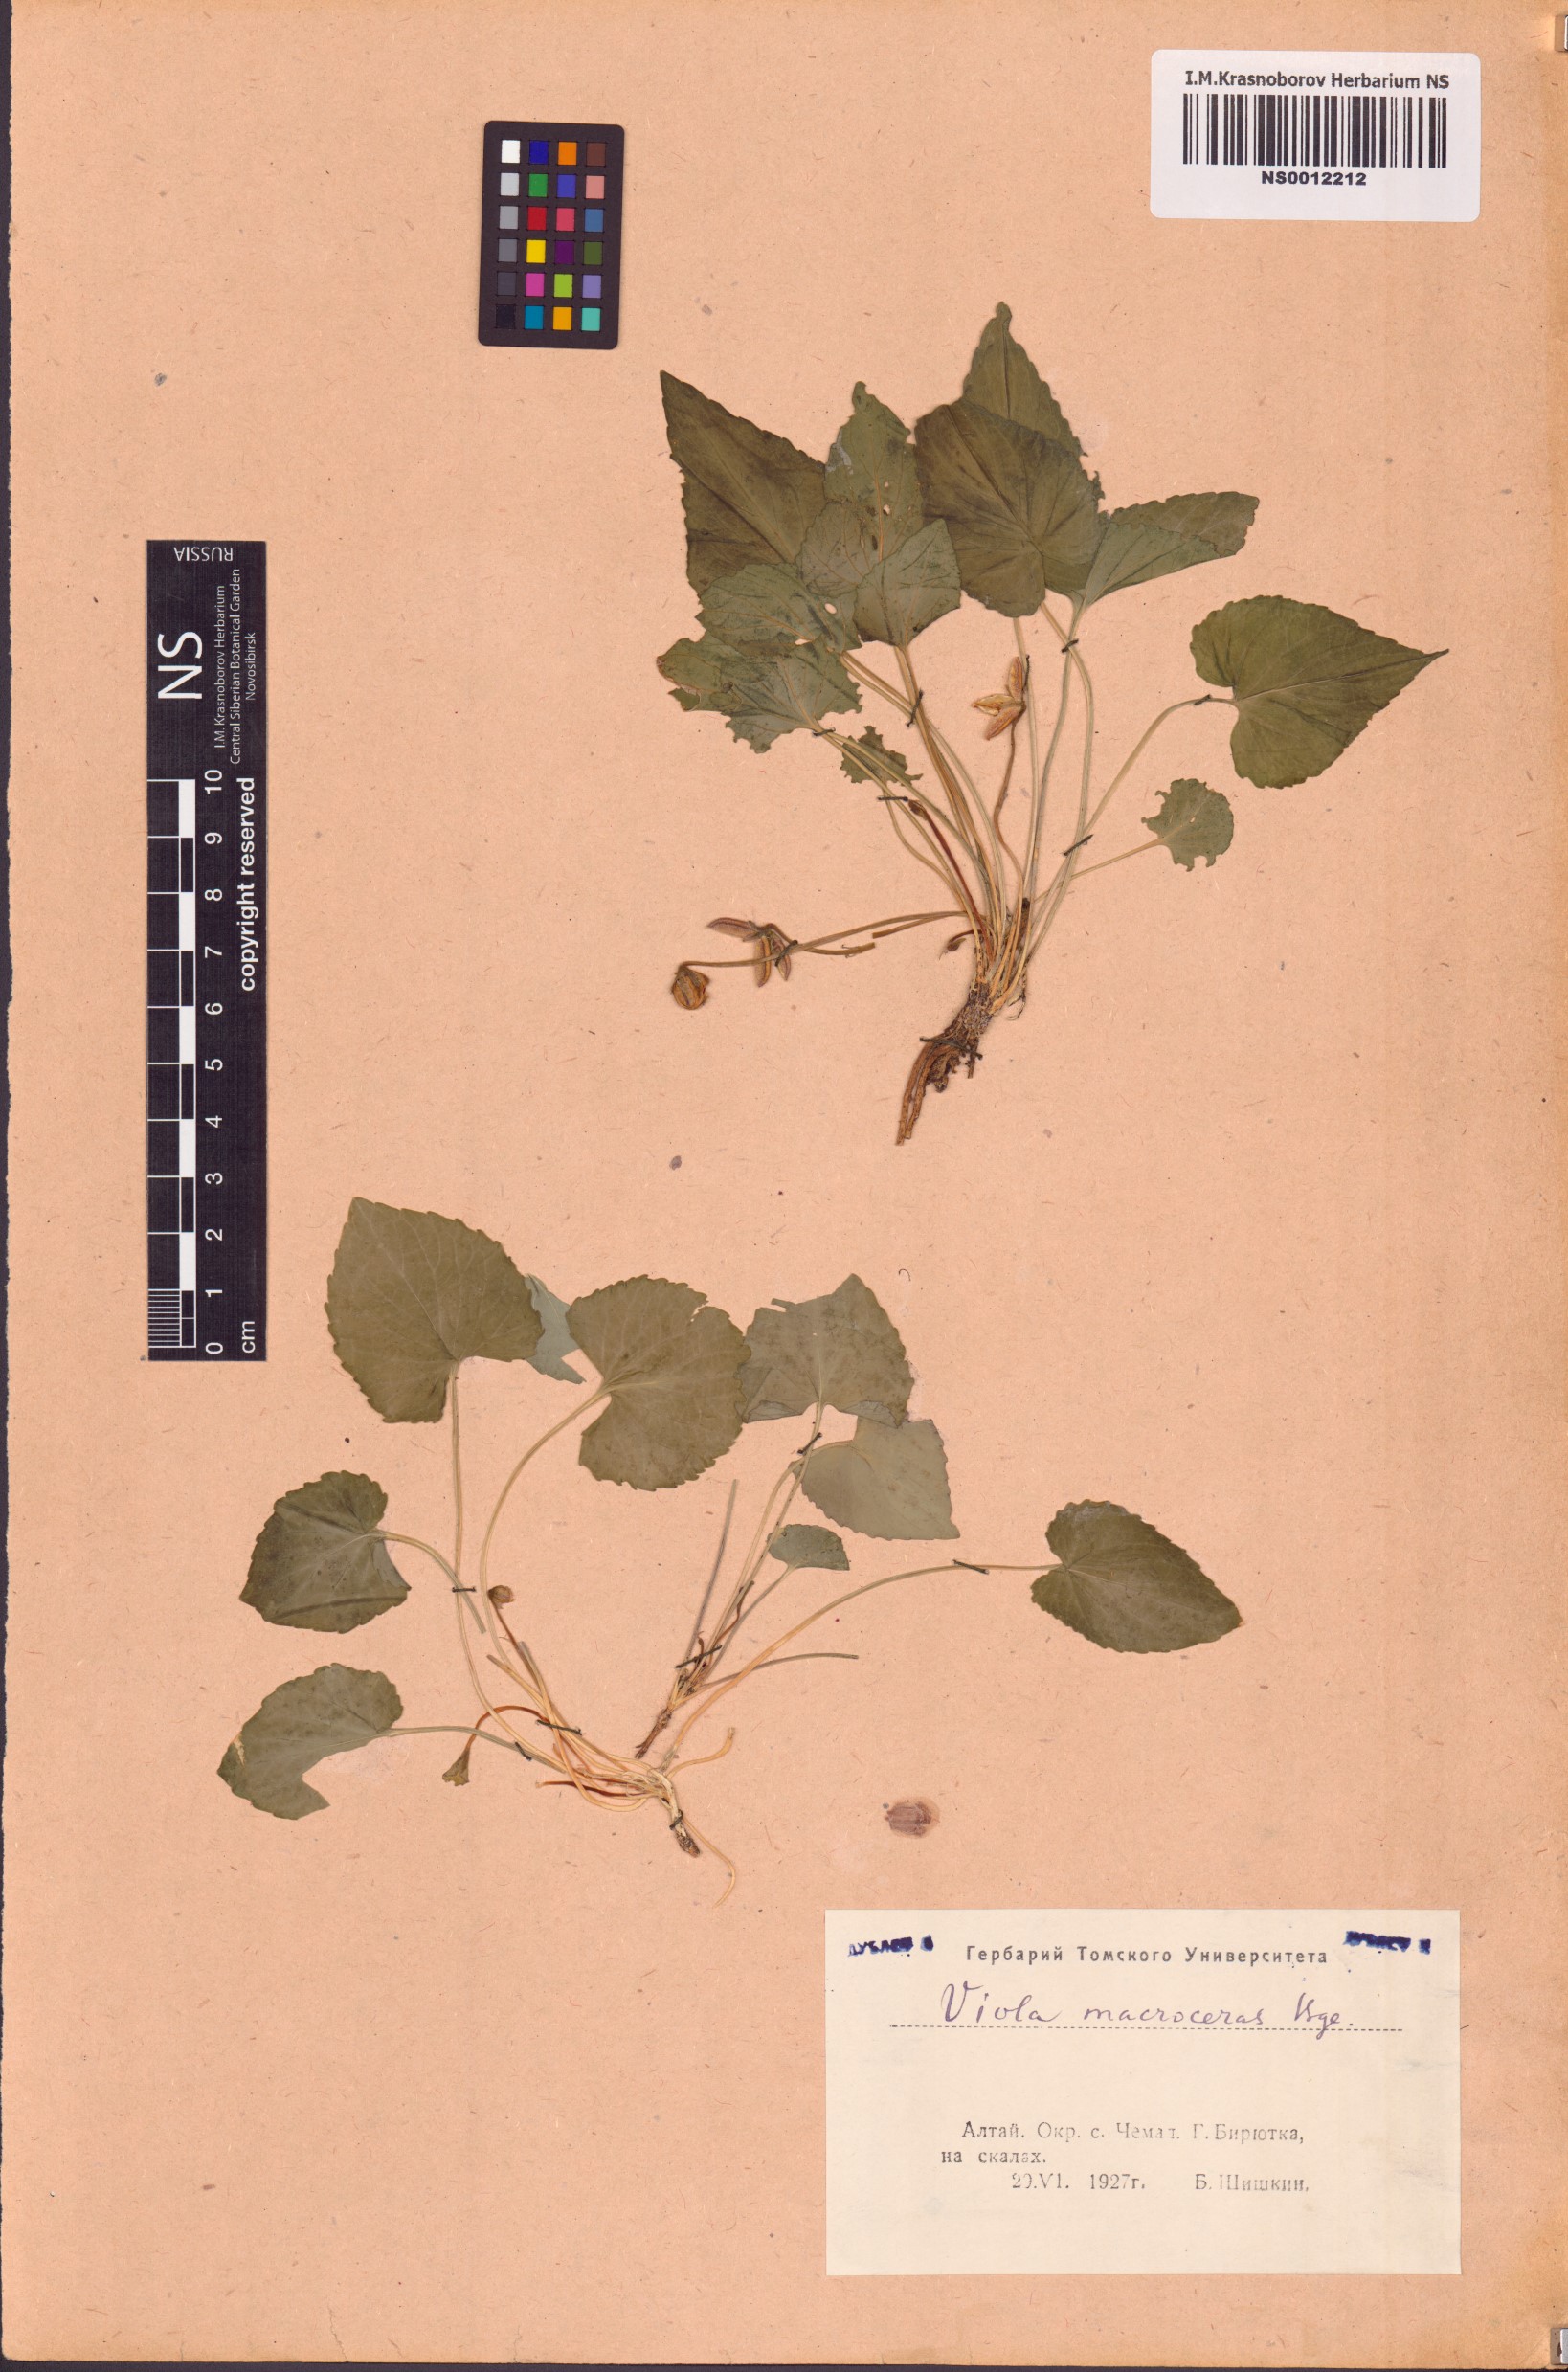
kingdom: Plantae
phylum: Tracheophyta
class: Magnoliopsida
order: Malpighiales
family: Violaceae
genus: Viola
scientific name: Viola macroceras
